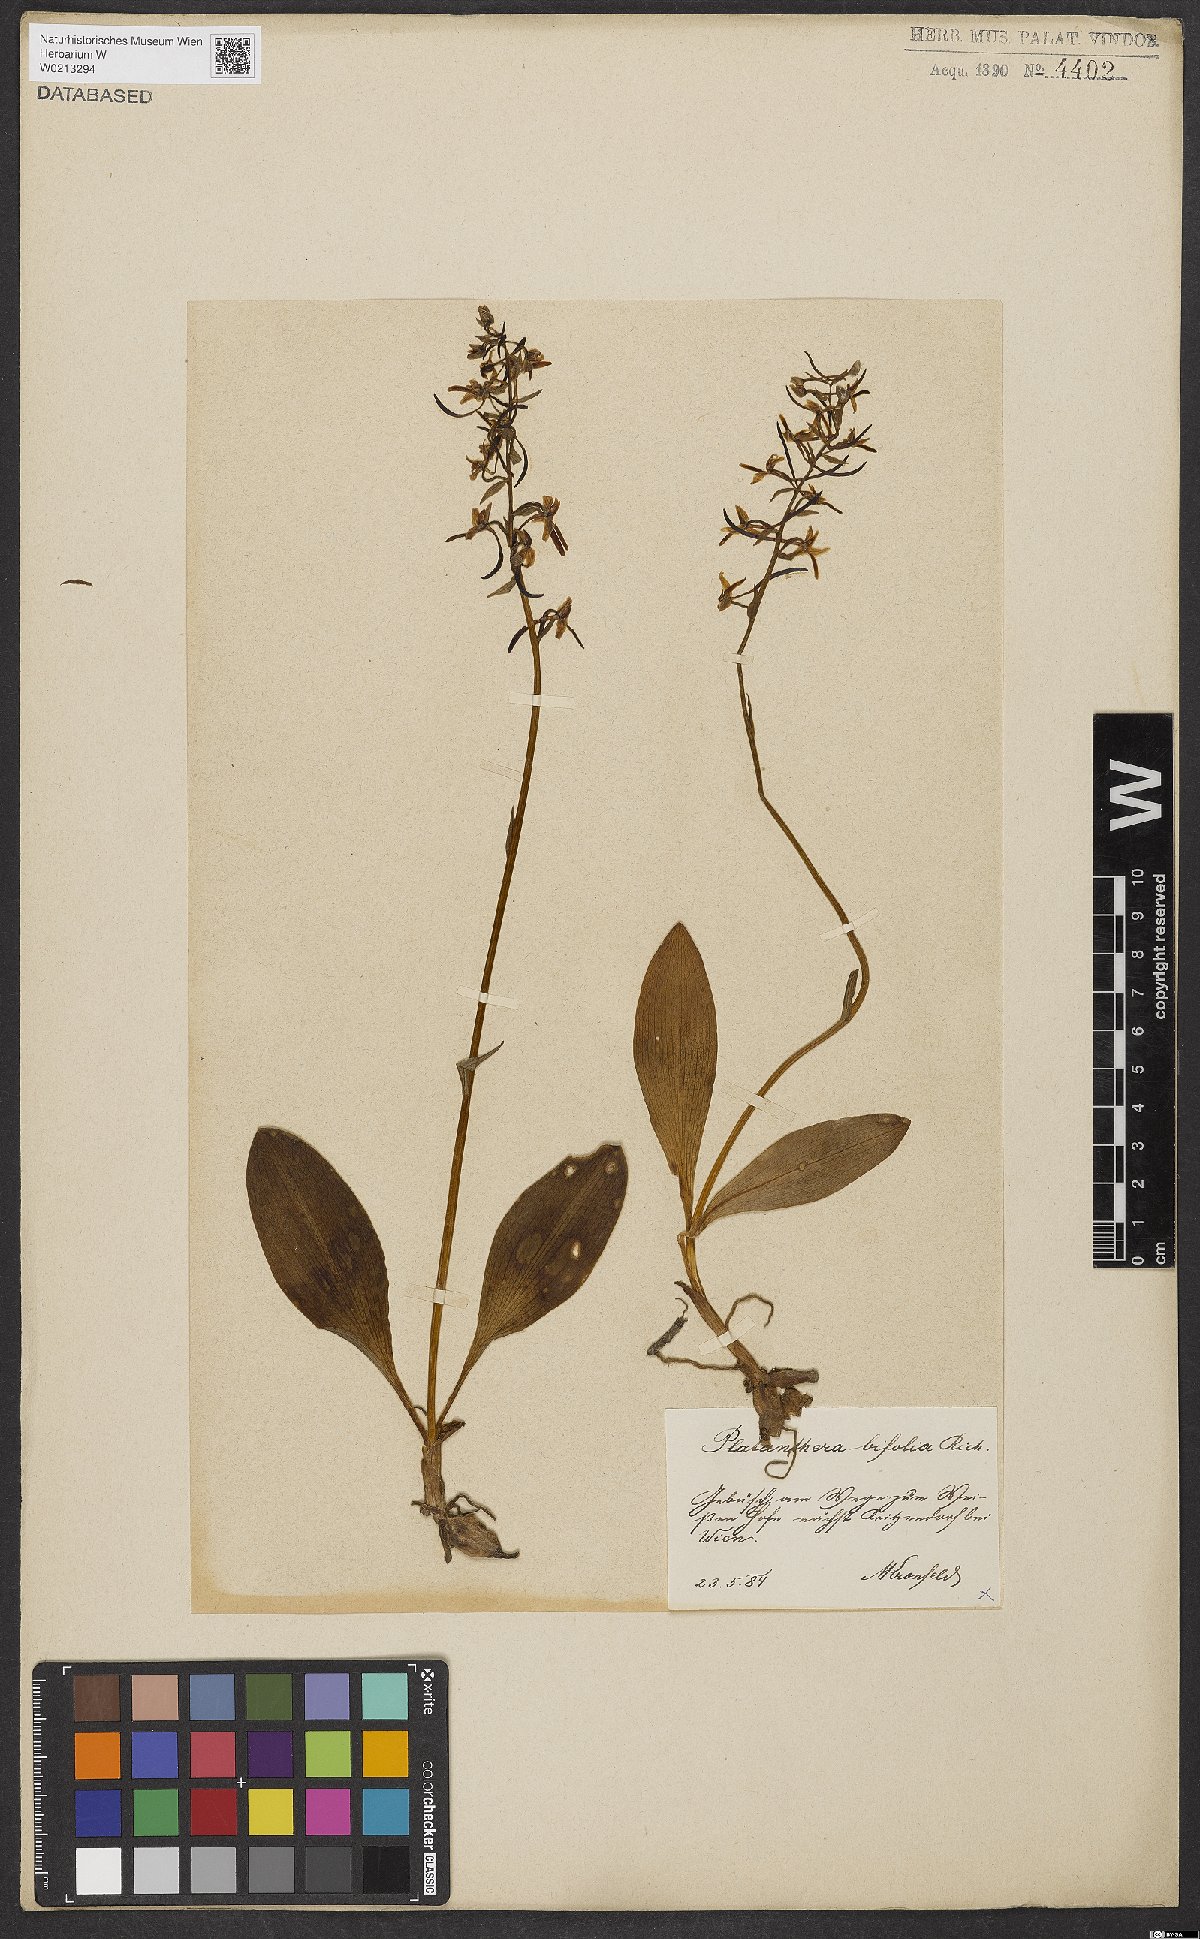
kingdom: Plantae
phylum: Tracheophyta
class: Liliopsida
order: Asparagales
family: Orchidaceae
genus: Platanthera
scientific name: Platanthera bifolia
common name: Lesser butterfly-orchid
